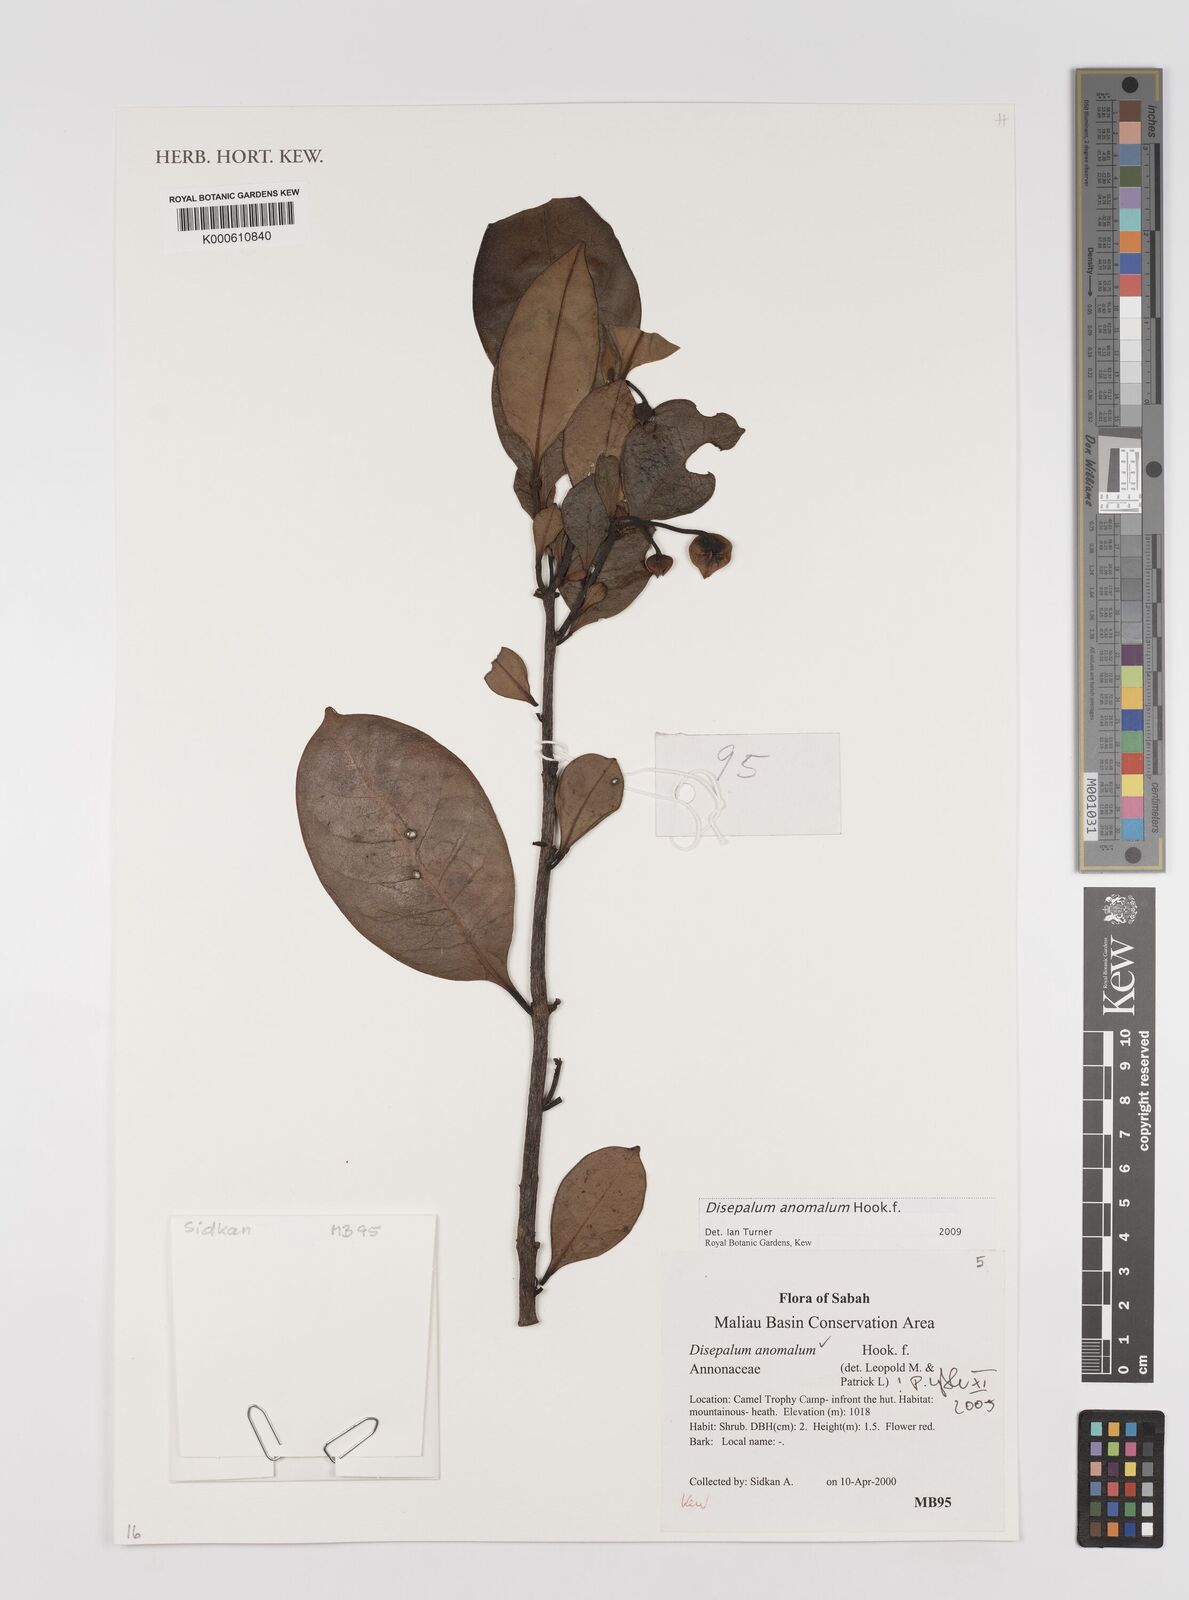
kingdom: Plantae
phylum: Tracheophyta
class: Magnoliopsida
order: Magnoliales
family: Annonaceae
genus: Disepalum
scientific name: Disepalum anomalum
